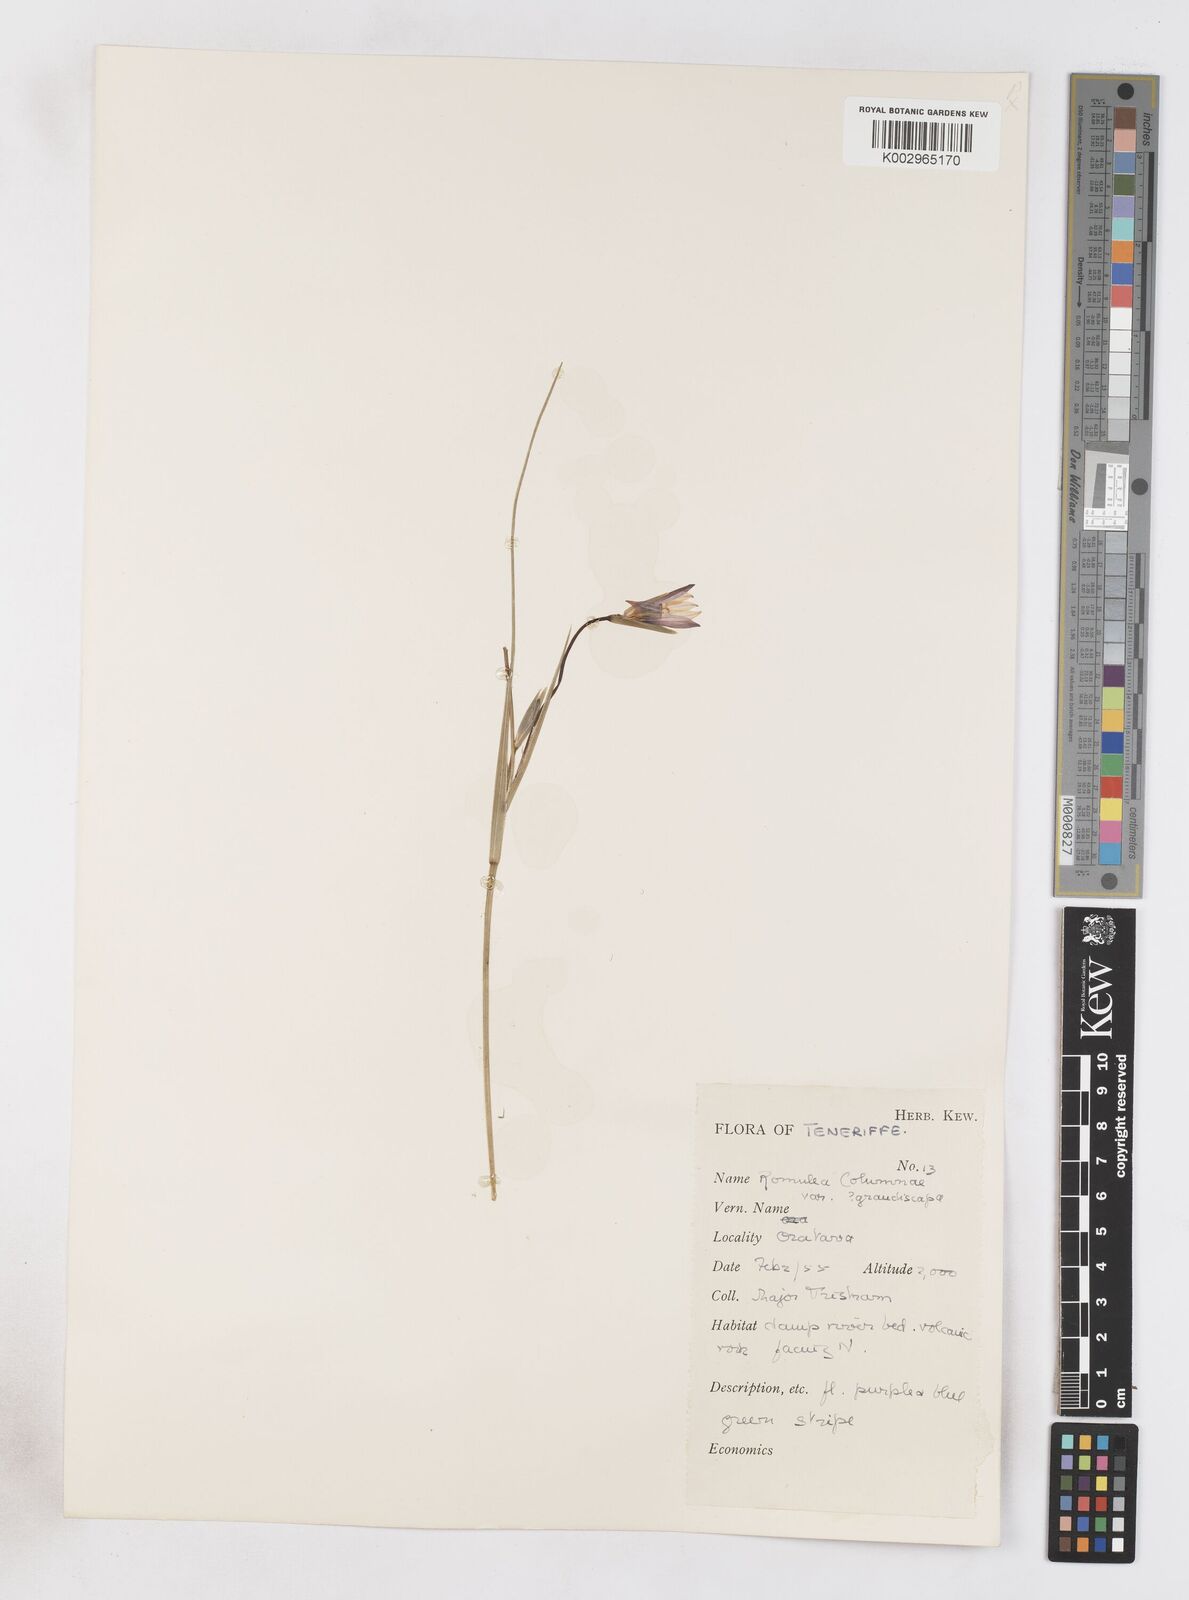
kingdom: Plantae
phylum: Tracheophyta
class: Liliopsida
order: Asparagales
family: Iridaceae
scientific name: Iridaceae
